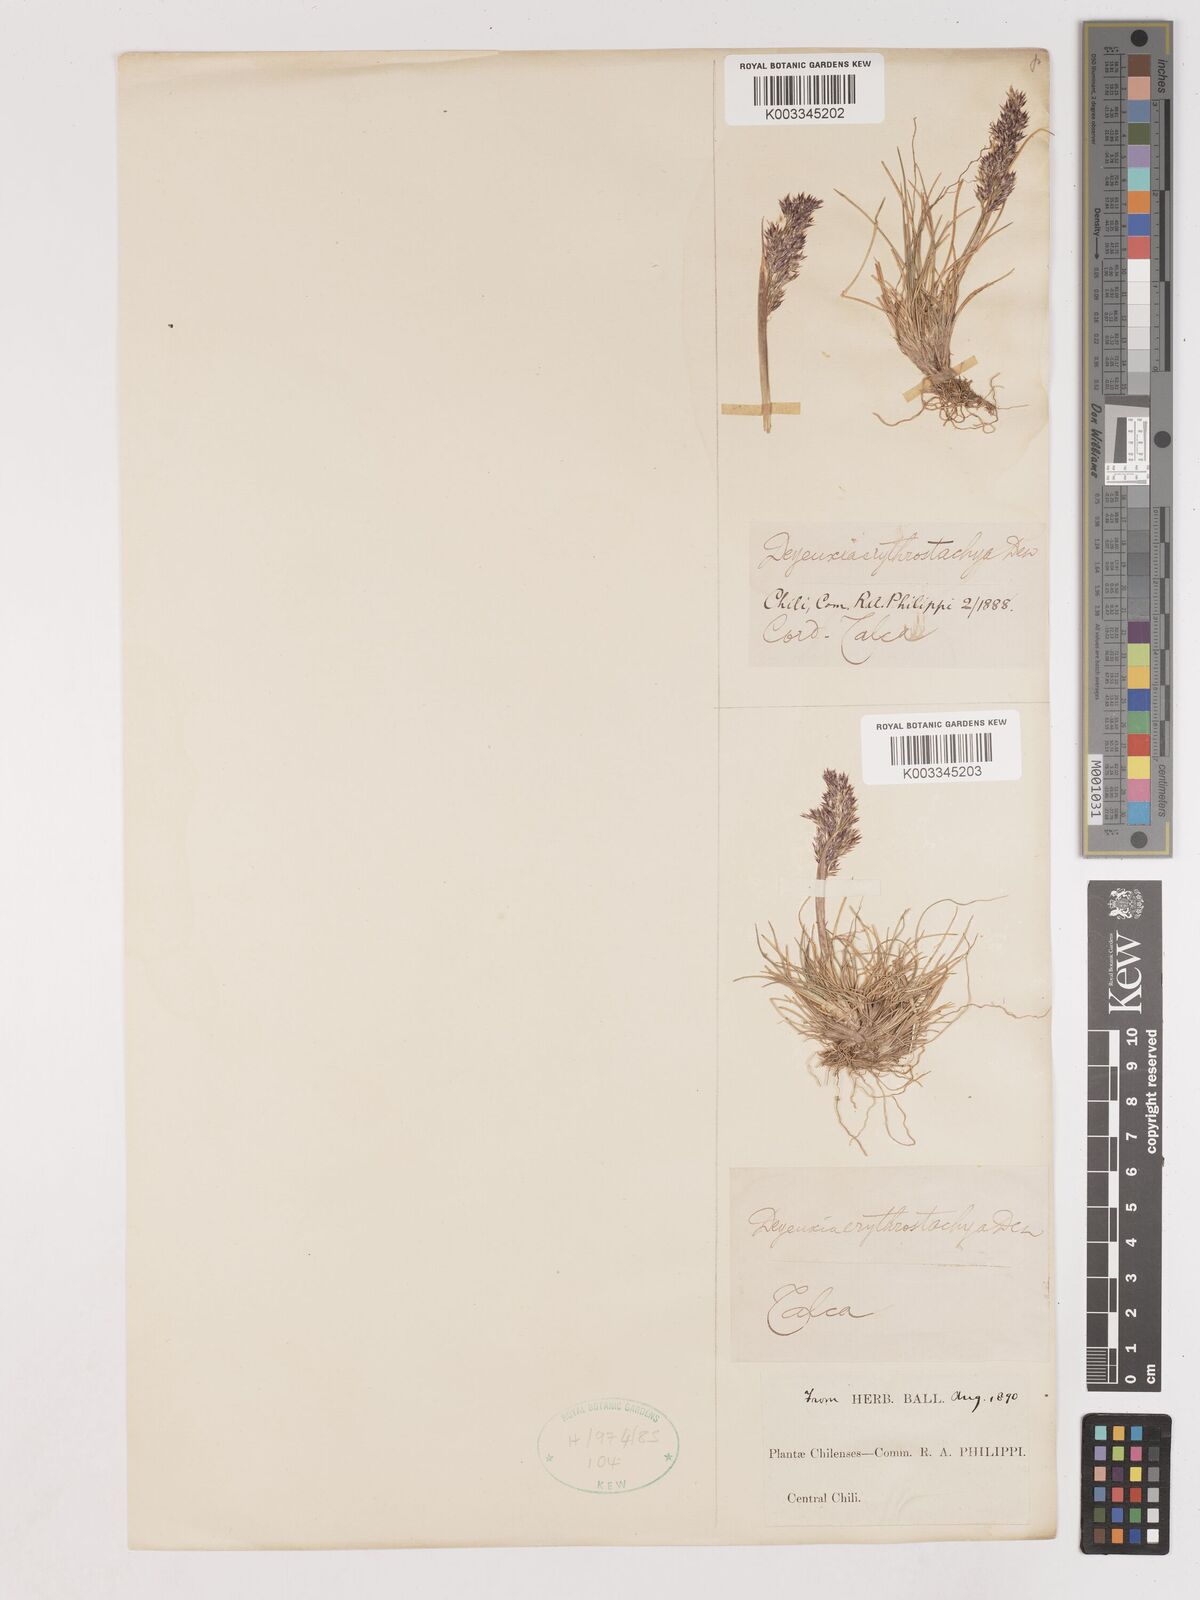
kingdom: Plantae
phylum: Tracheophyta
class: Liliopsida
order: Poales
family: Poaceae
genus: Calamagrostis
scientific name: Calamagrostis
